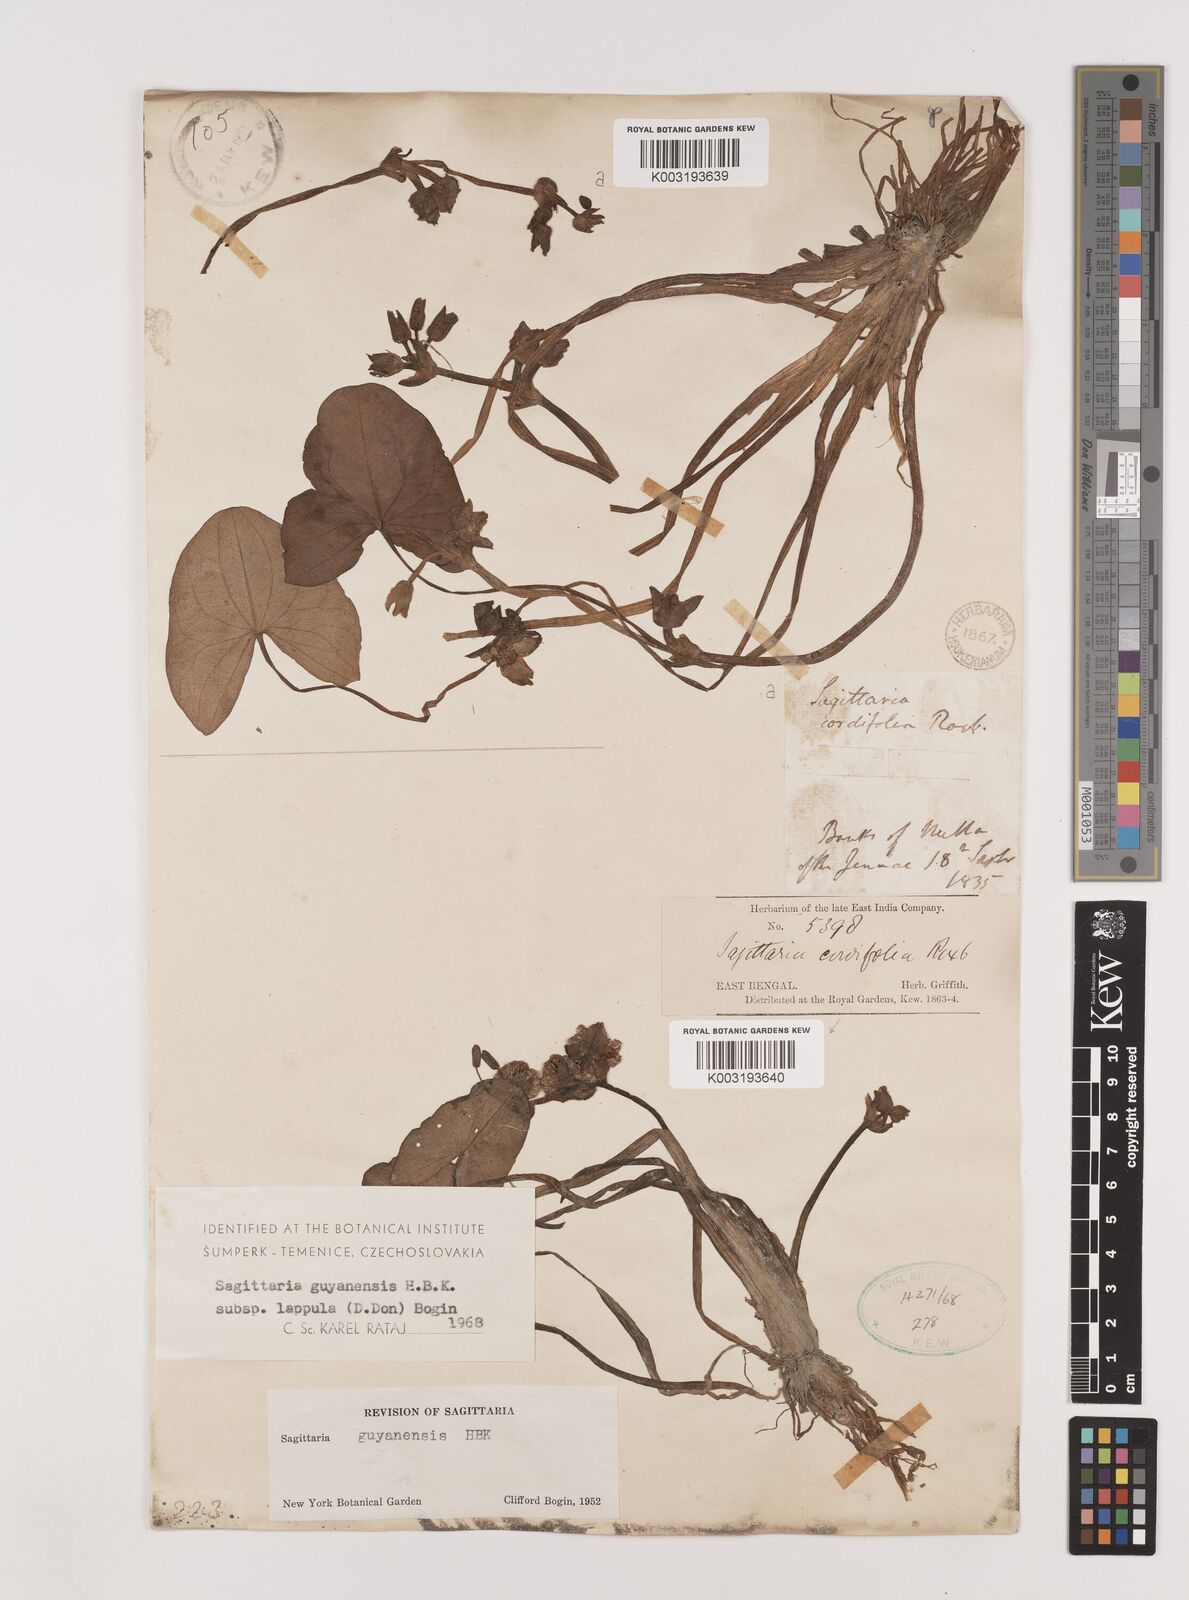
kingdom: Plantae
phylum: Tracheophyta
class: Liliopsida
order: Alismatales
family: Alismataceae
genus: Sagittaria
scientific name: Sagittaria guayanensis
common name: Guyanese arrowhead
